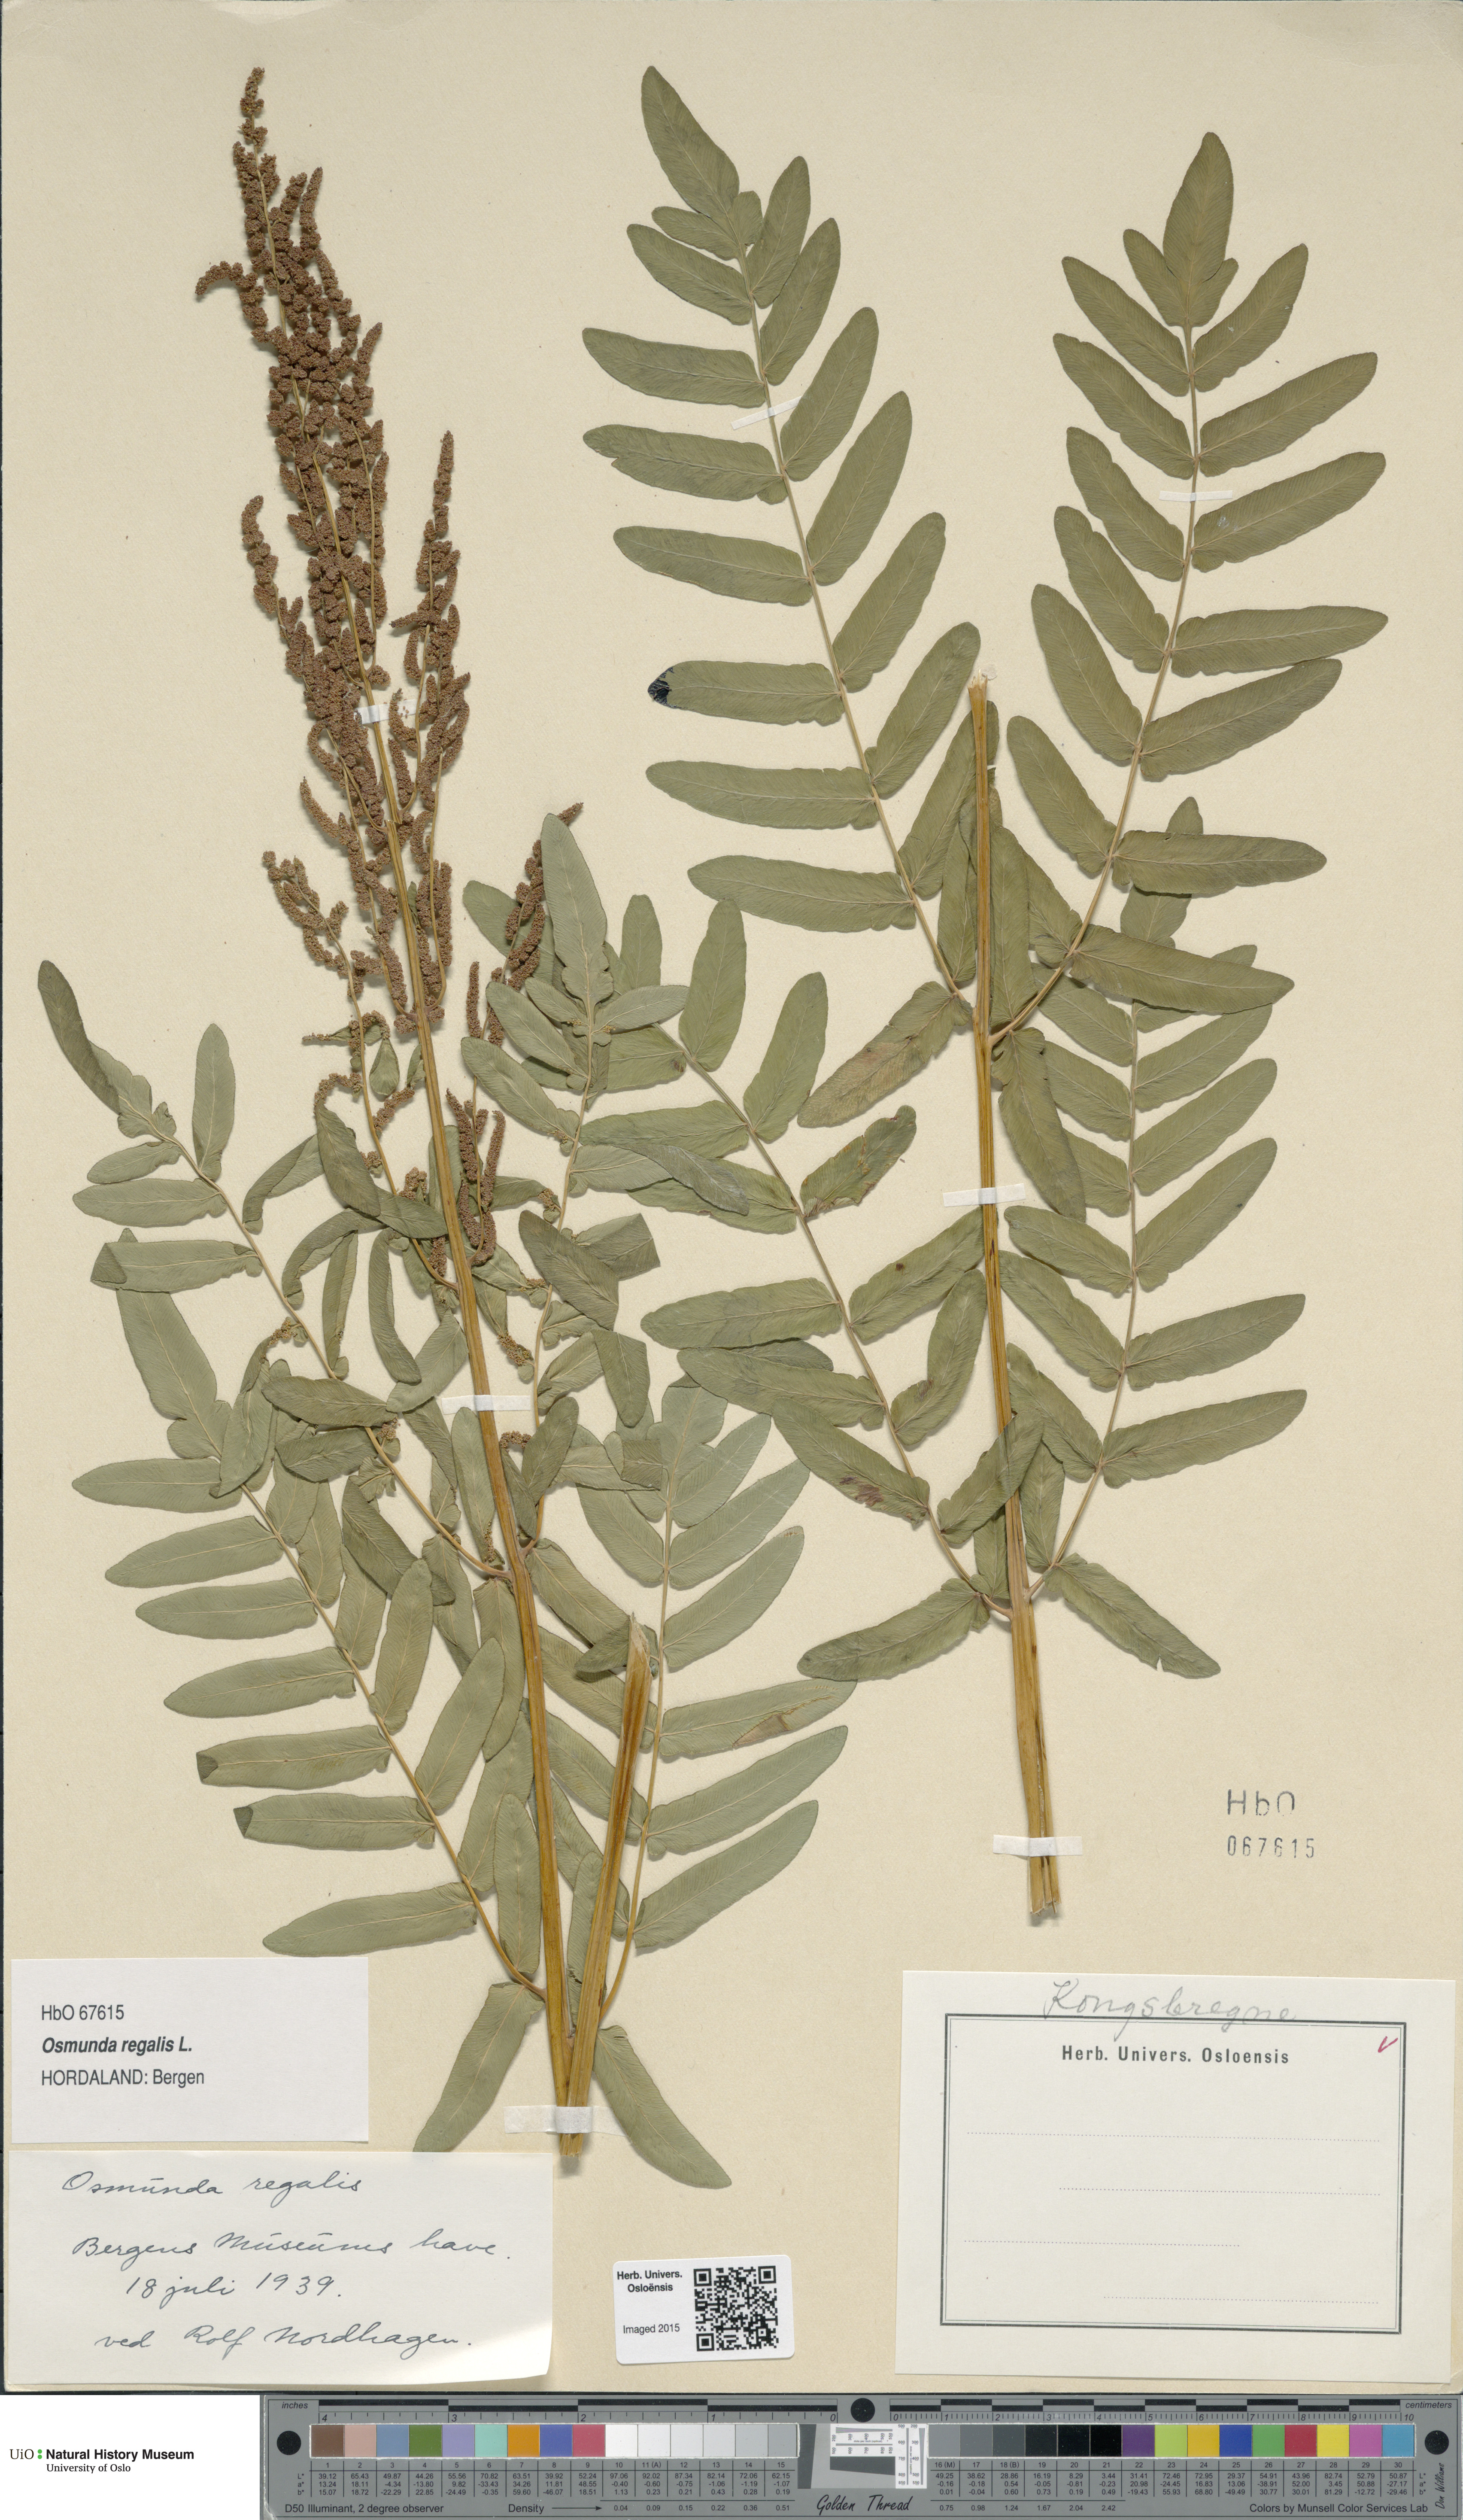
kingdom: Plantae
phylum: Tracheophyta
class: Polypodiopsida
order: Osmundales
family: Osmundaceae
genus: Osmunda
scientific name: Osmunda regalis
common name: Royal fern
